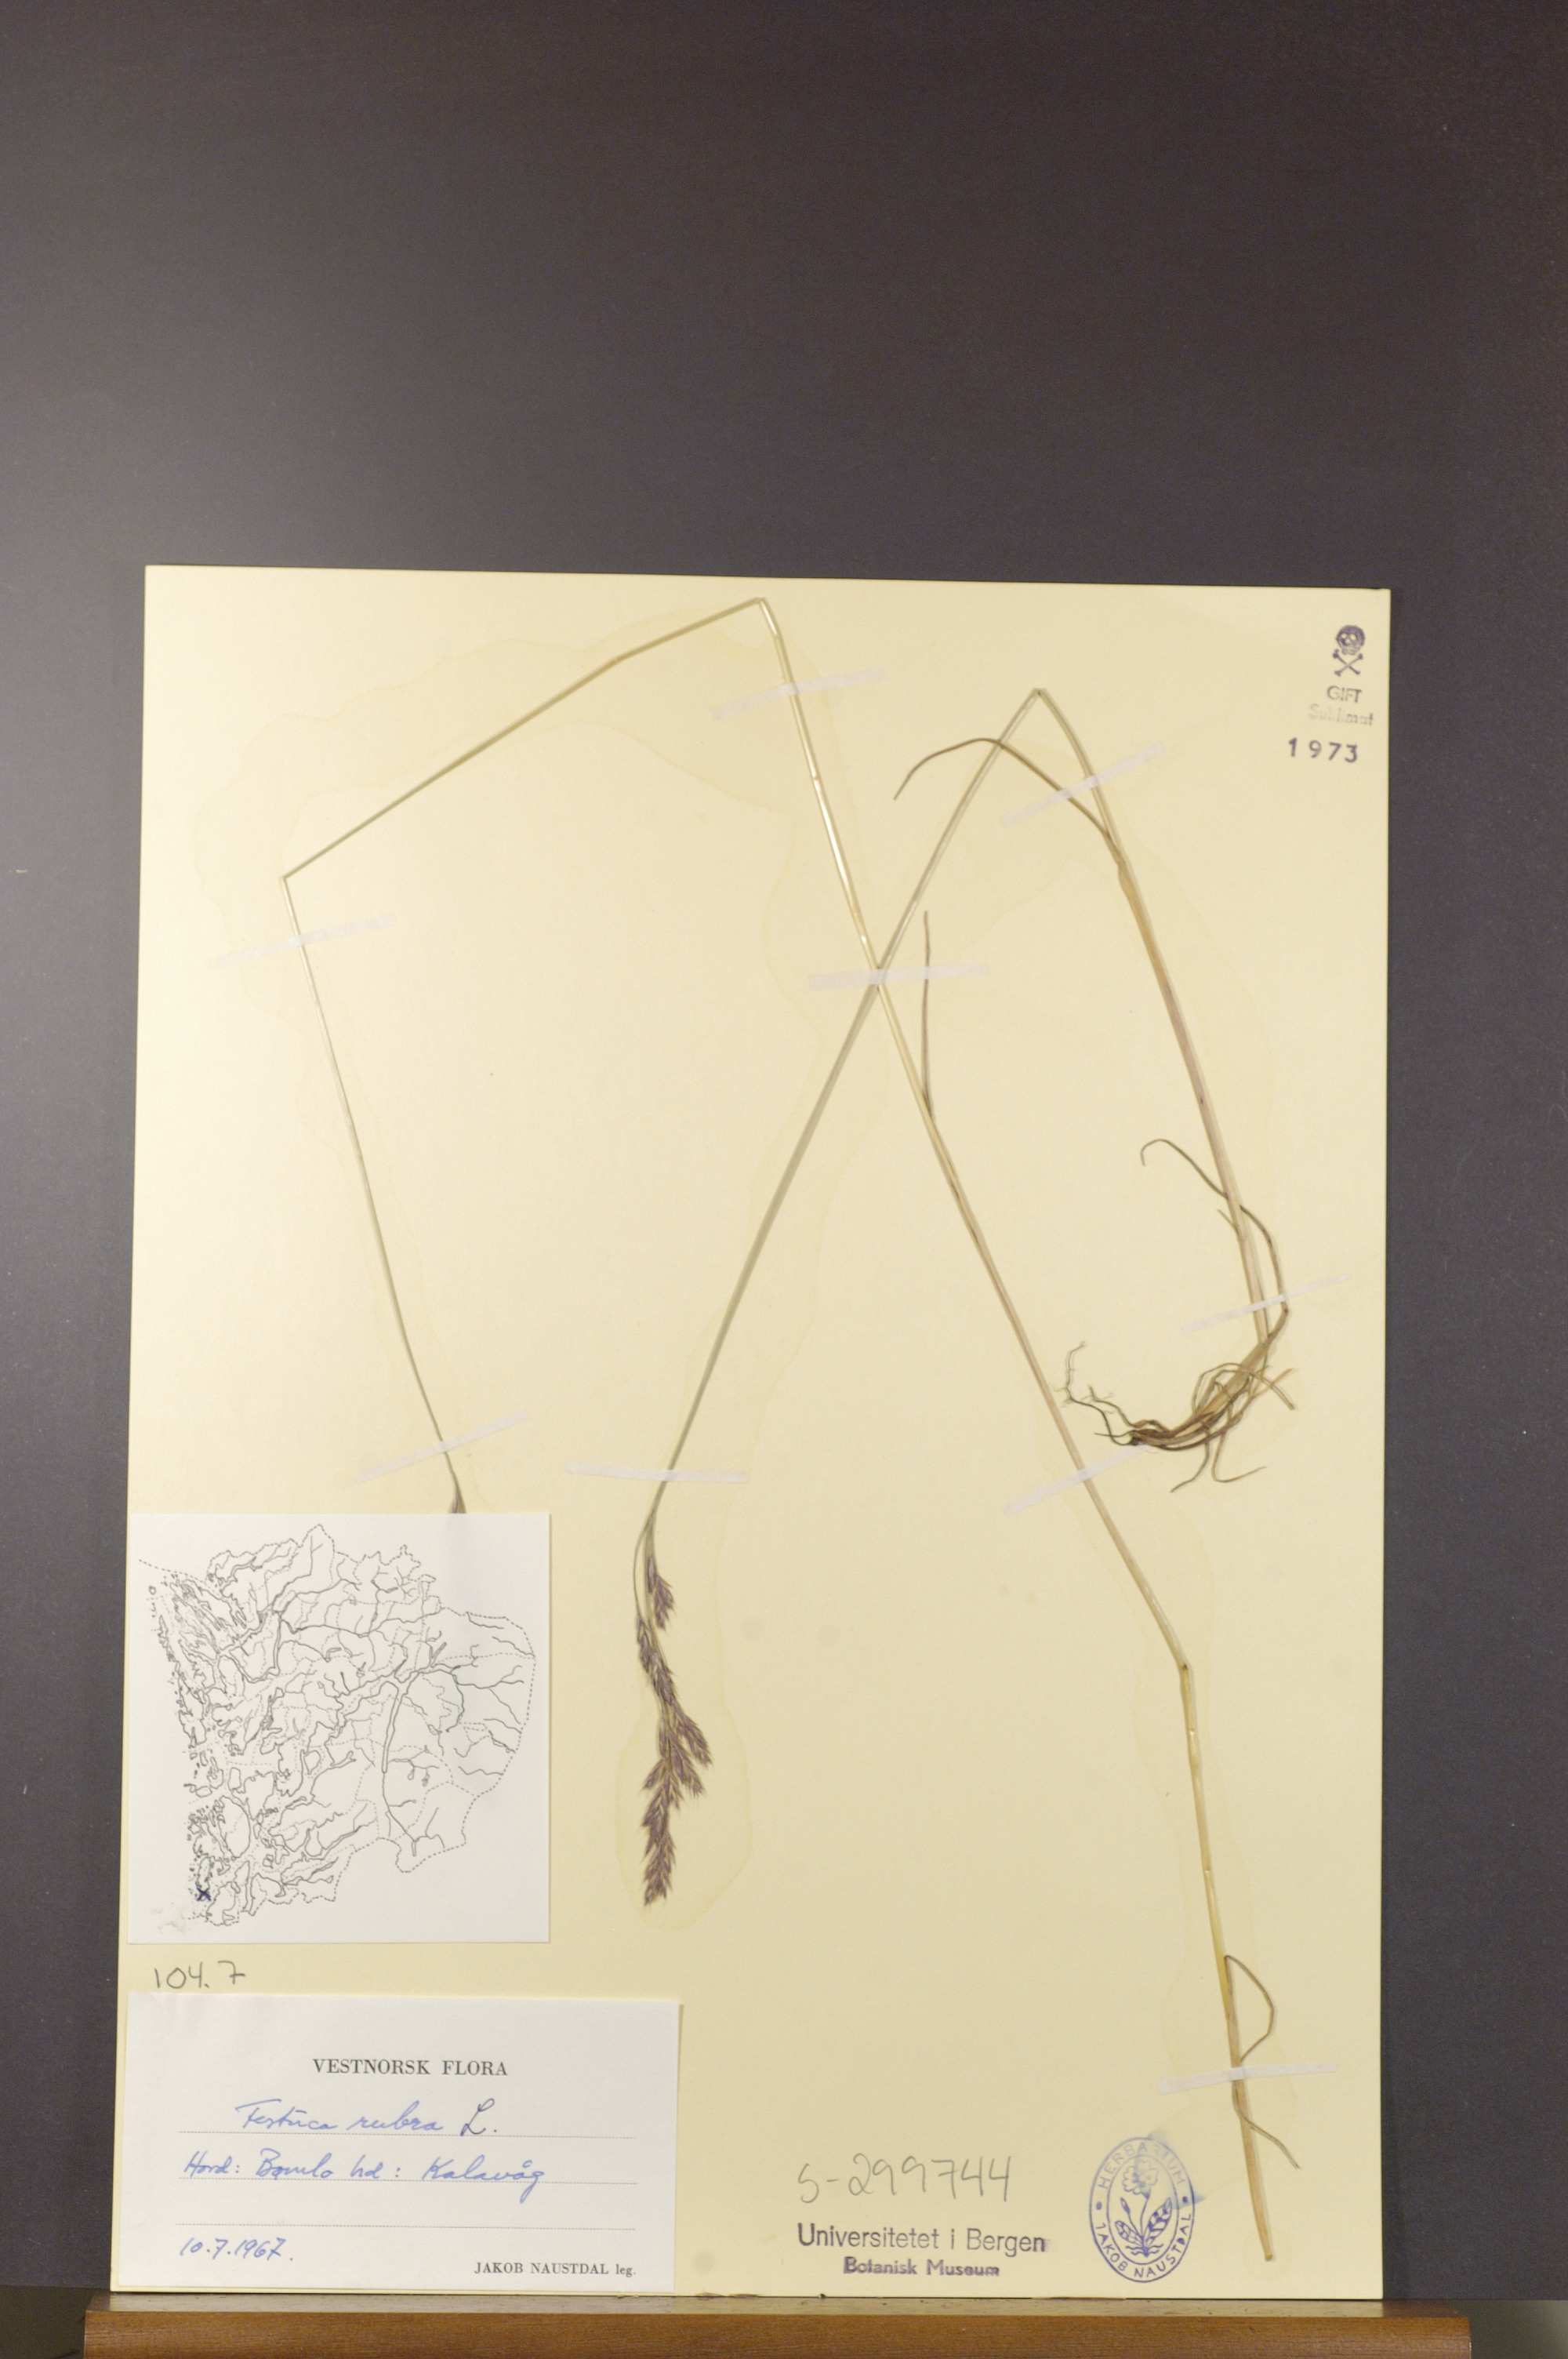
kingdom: Plantae
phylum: Tracheophyta
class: Liliopsida
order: Poales
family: Poaceae
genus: Festuca
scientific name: Festuca rubra
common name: Red fescue
